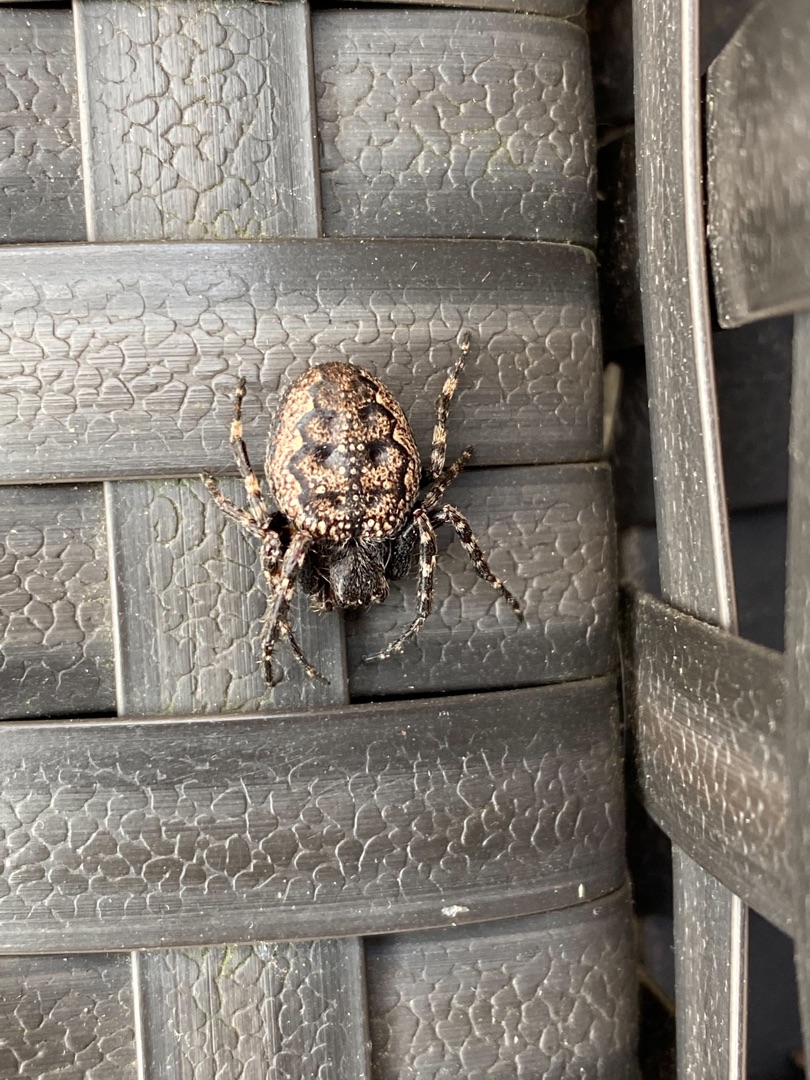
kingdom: Animalia
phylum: Arthropoda
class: Arachnida
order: Araneae
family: Araneidae
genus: Nuctenea
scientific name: Nuctenea umbratica
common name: Flad hjulspinder
